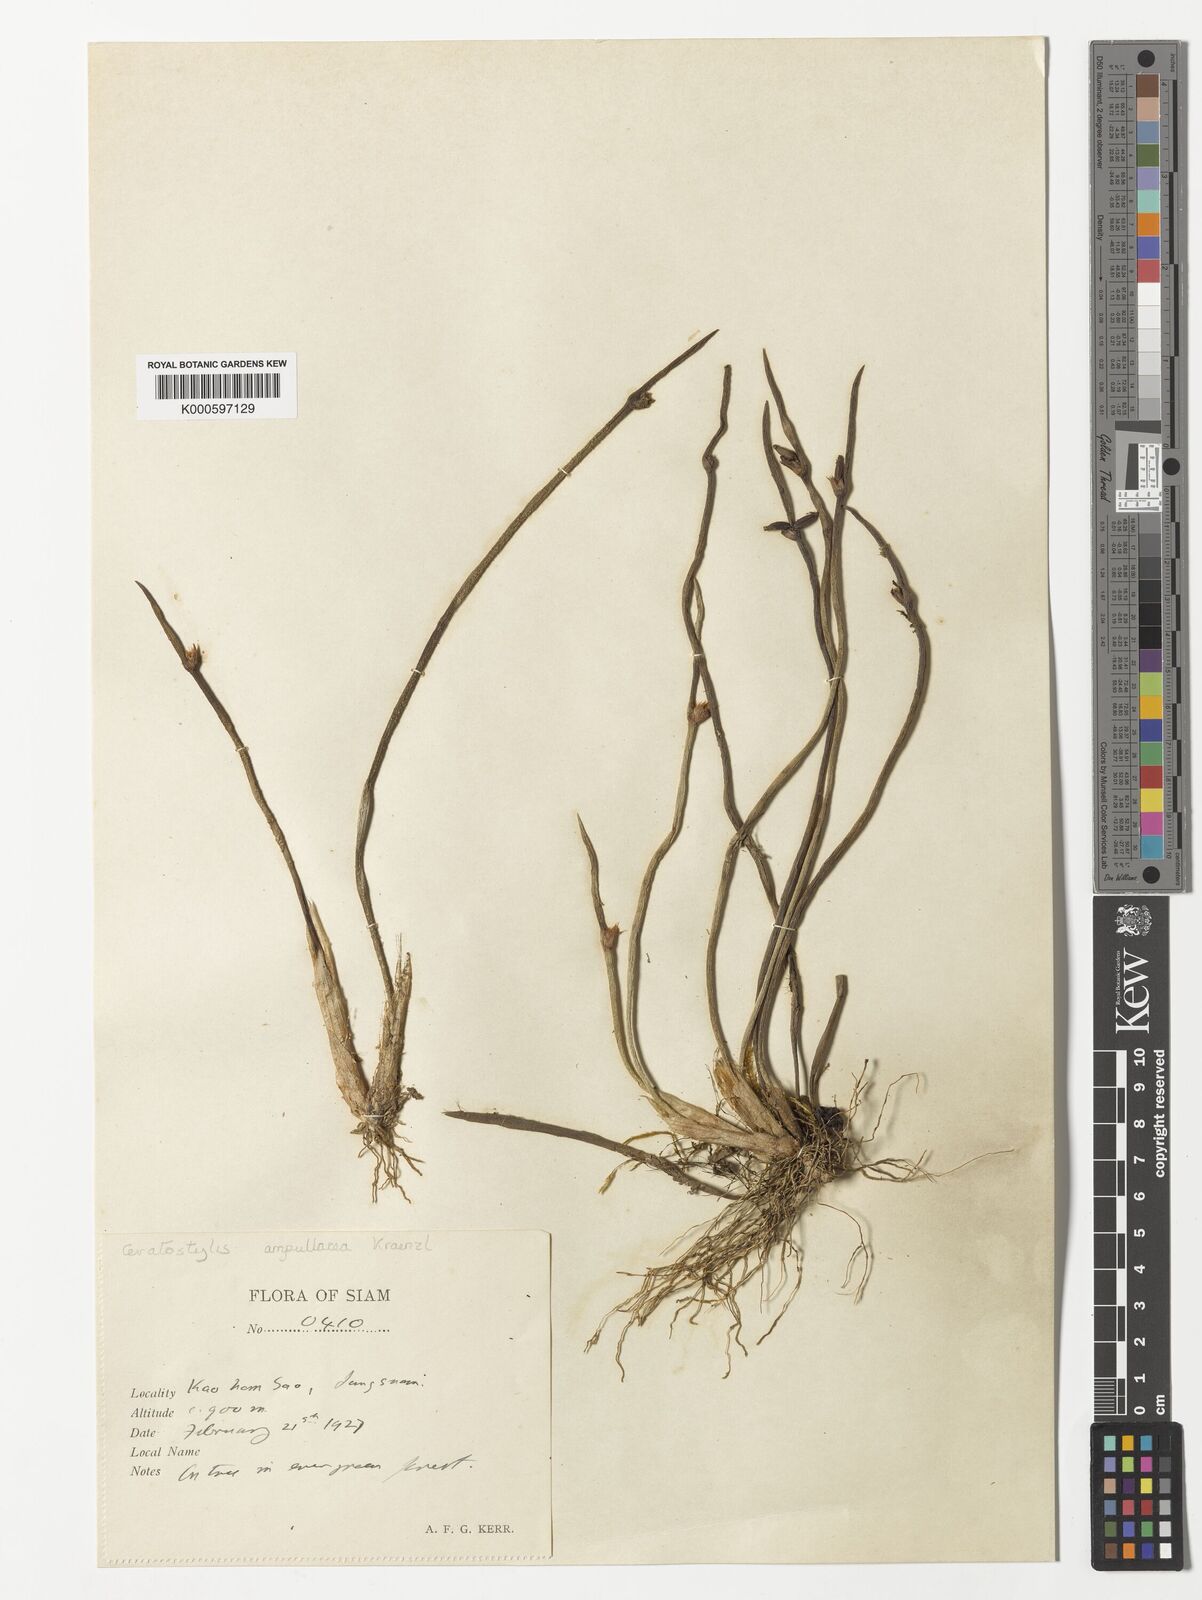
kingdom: Plantae
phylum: Tracheophyta
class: Liliopsida
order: Asparagales
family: Orchidaceae
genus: Ceratostylis
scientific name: Ceratostylis ampullacea
